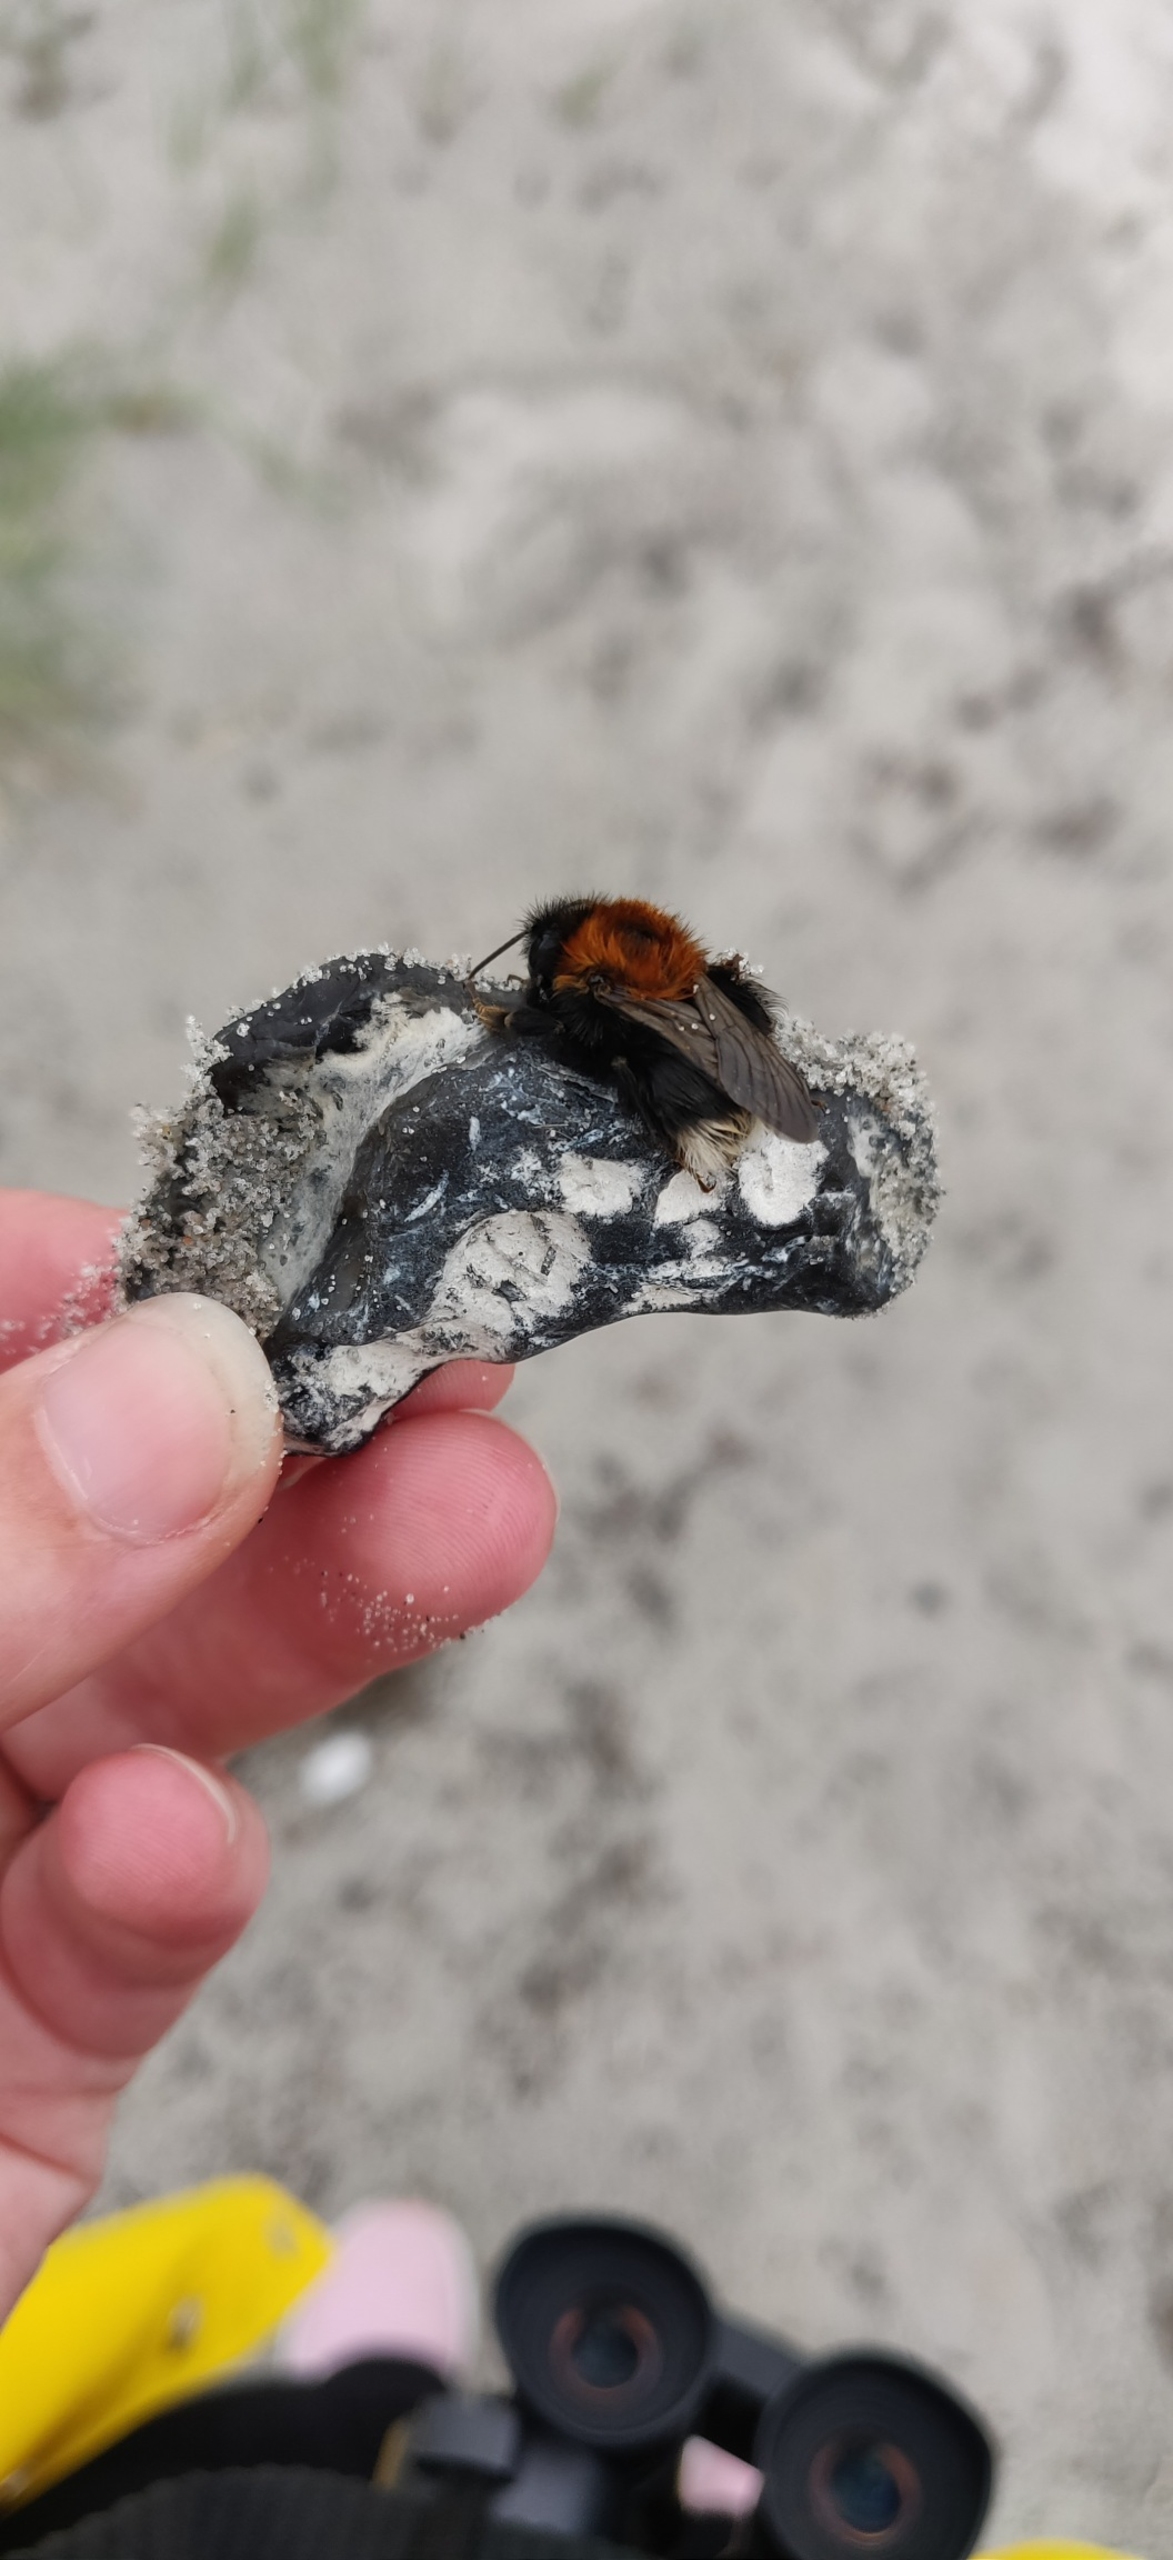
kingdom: Animalia
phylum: Arthropoda
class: Insecta
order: Hymenoptera
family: Apidae
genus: Bombus
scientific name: Bombus hypnorum
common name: Hushumle
